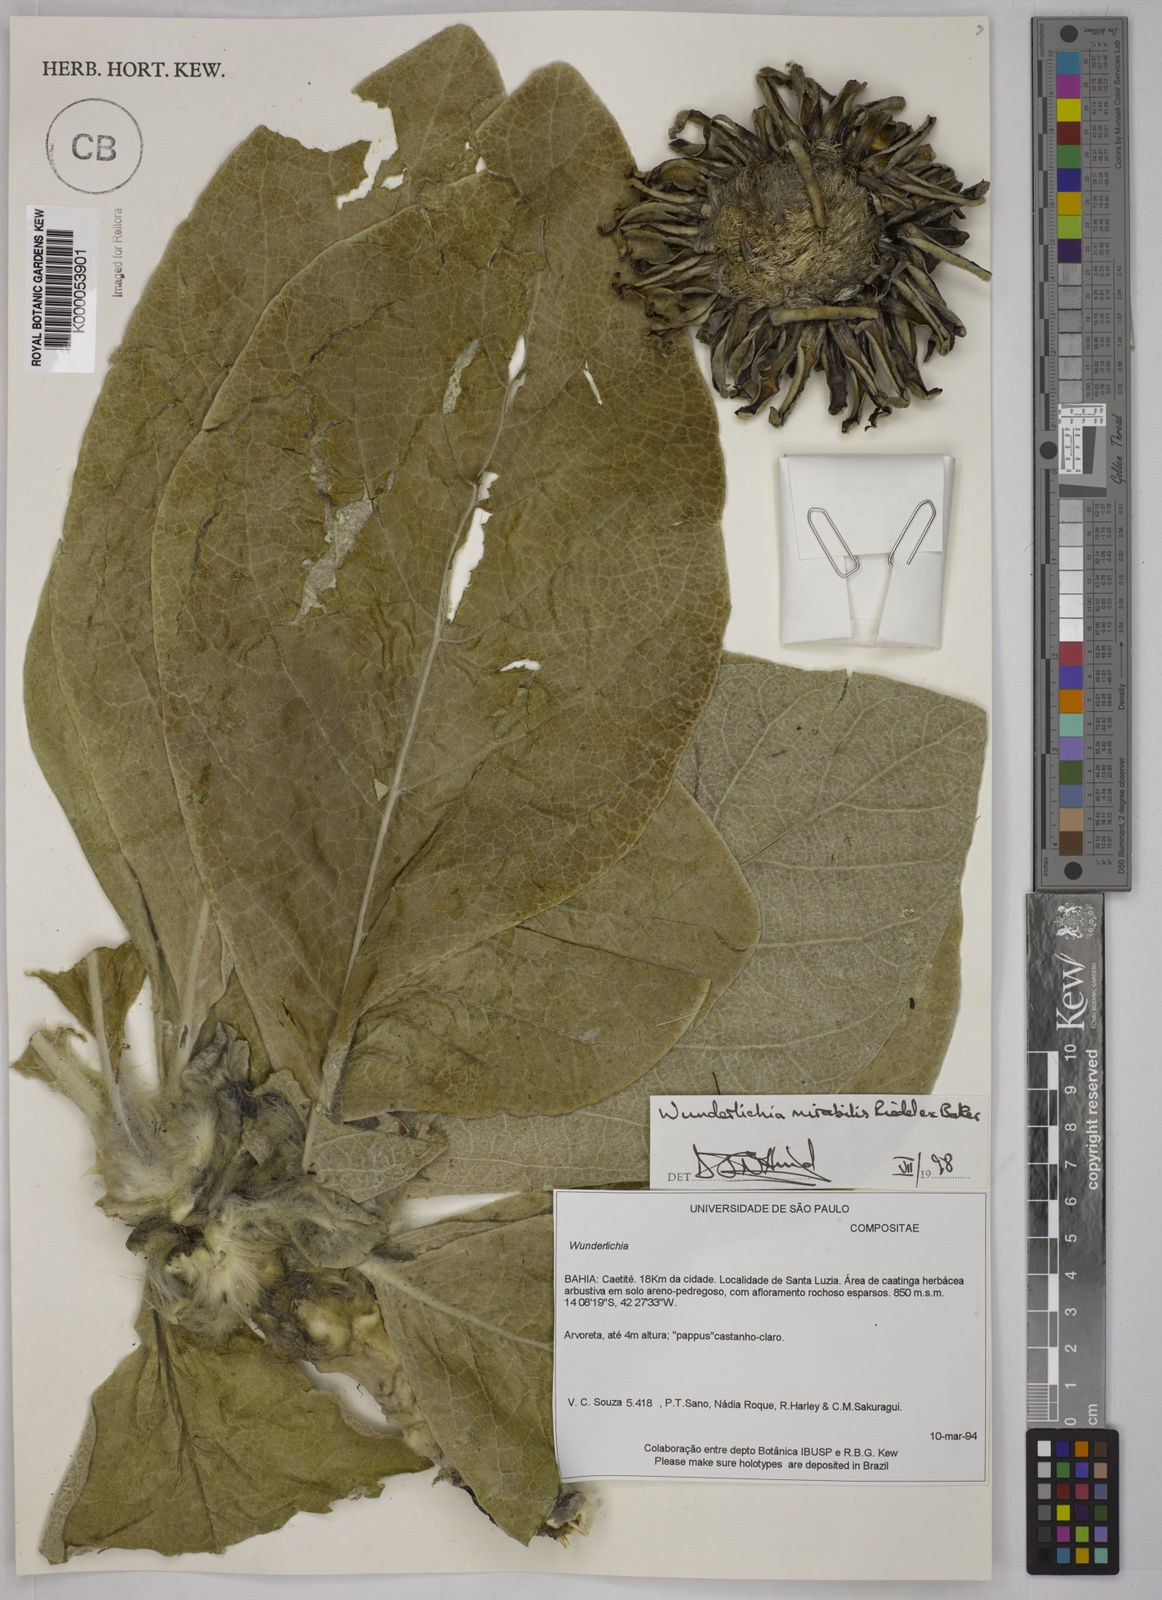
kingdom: Plantae
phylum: Tracheophyta
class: Magnoliopsida
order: Asterales
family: Asteraceae
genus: Wunderlichia
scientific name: Wunderlichia mirabilis
